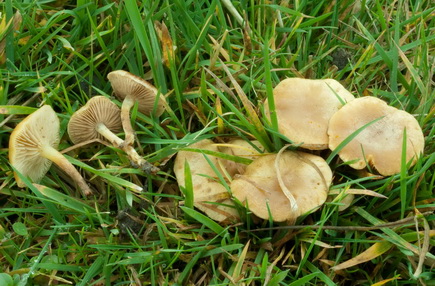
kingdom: Fungi
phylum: Basidiomycota
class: Agaricomycetes
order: Agaricales
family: Strophariaceae
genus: Pholiota
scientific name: Pholiota conissans
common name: pile-skælhat
